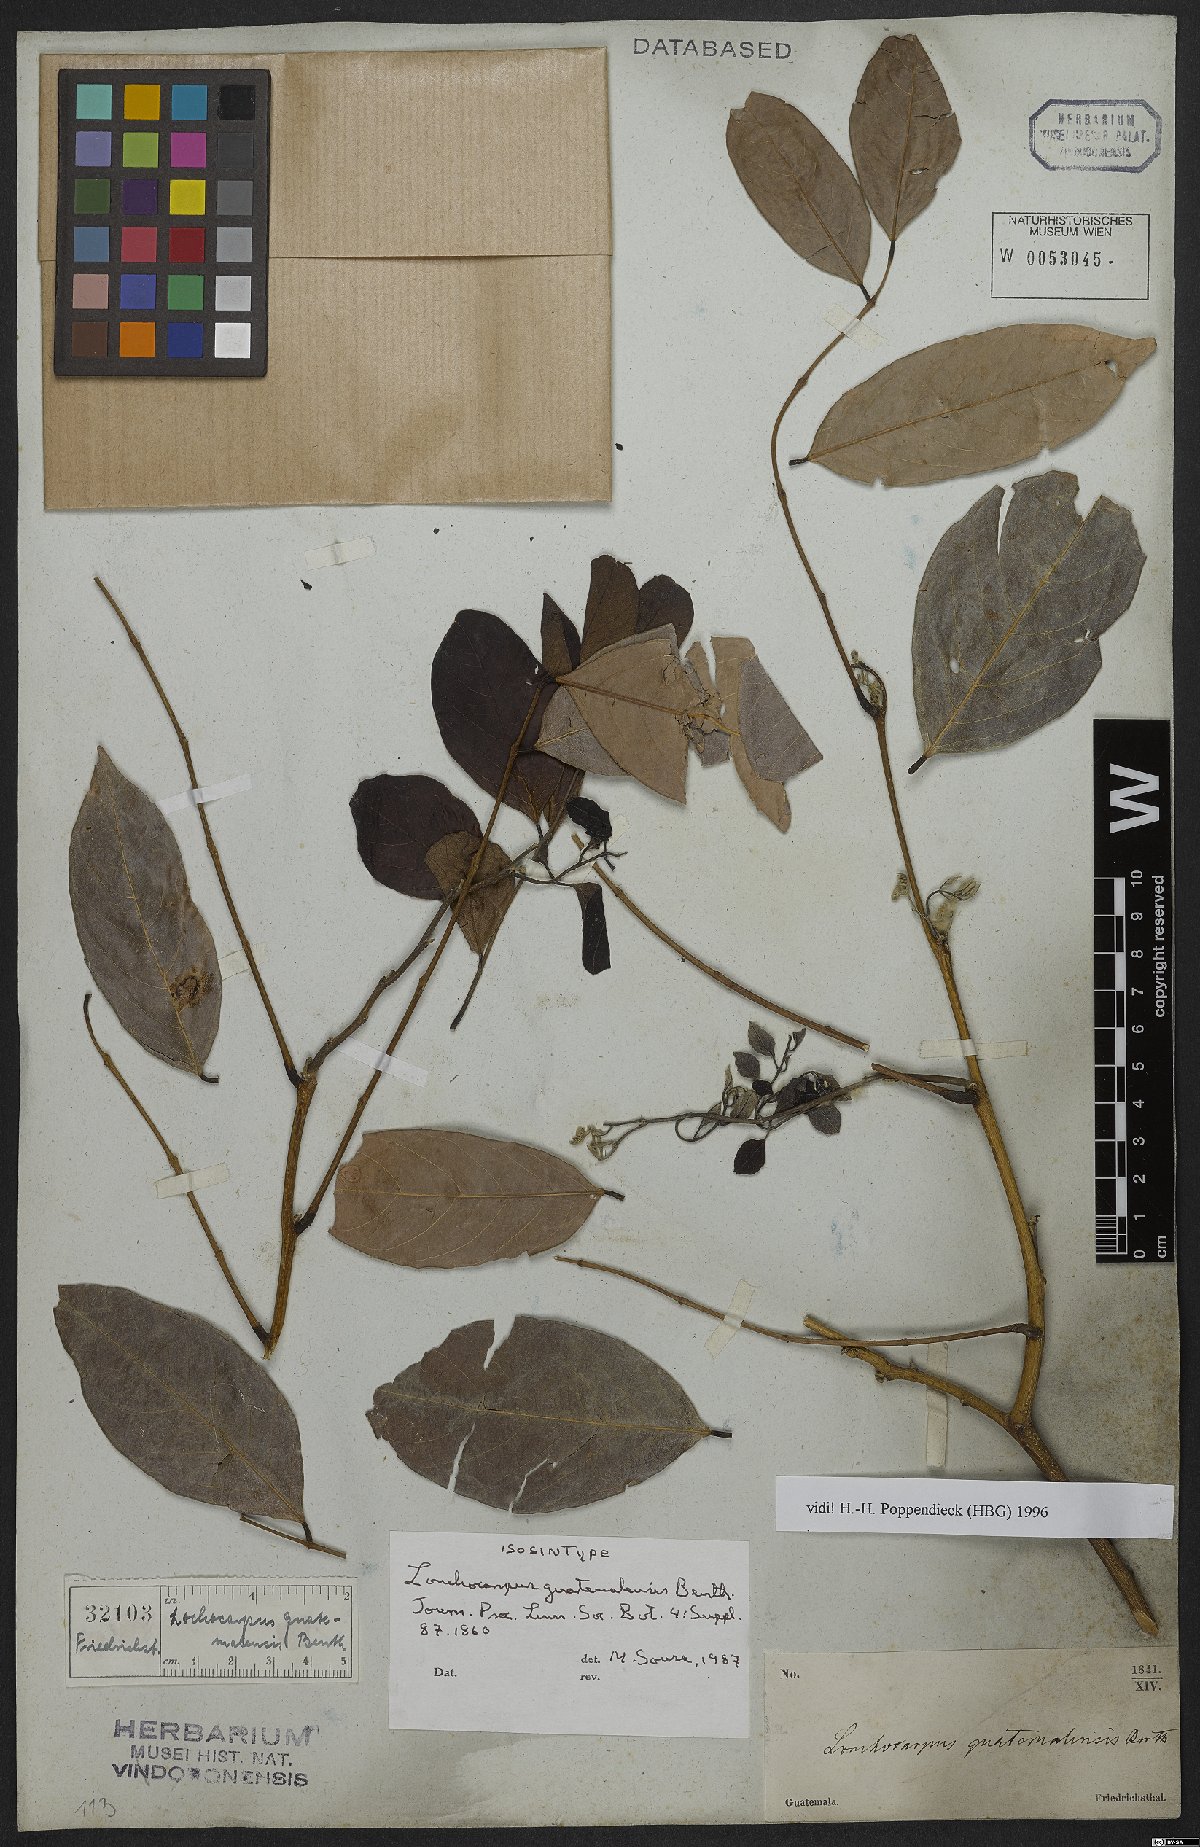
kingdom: Plantae
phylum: Tracheophyta
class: Magnoliopsida
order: Fabales
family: Fabaceae
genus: Lonchocarpus
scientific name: Lonchocarpus guatemalensis
